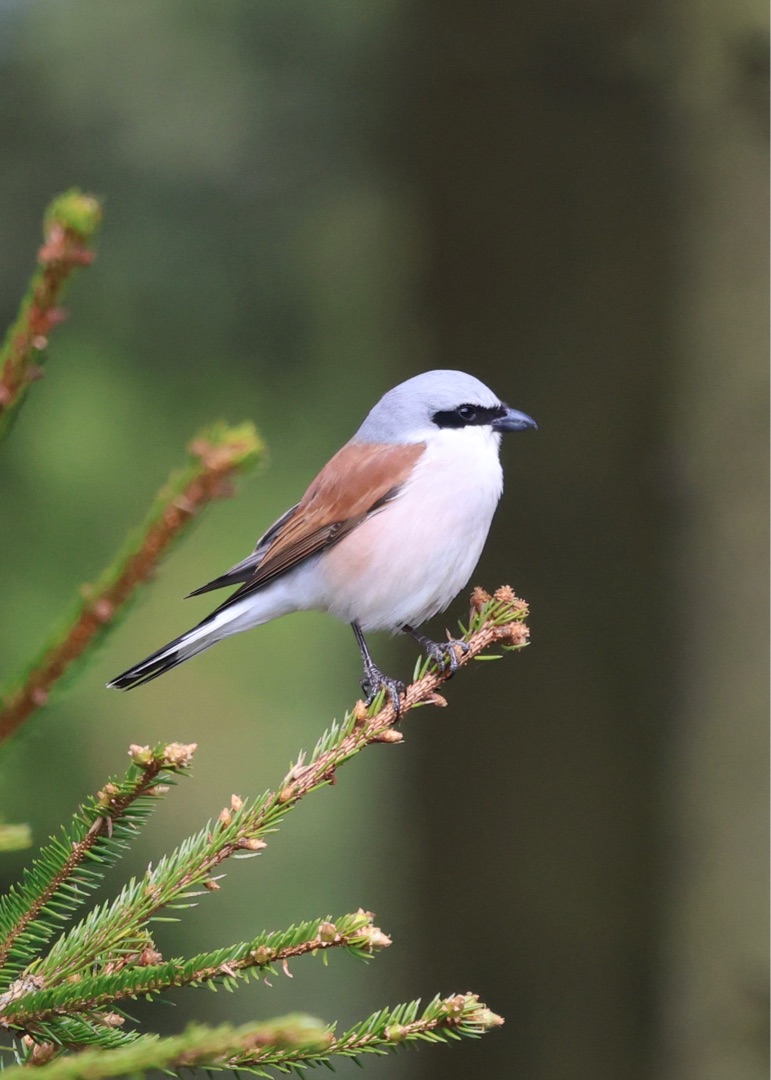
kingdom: Animalia
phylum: Chordata
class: Aves
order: Passeriformes
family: Laniidae
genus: Lanius
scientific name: Lanius collurio
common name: Rødrygget tornskade
